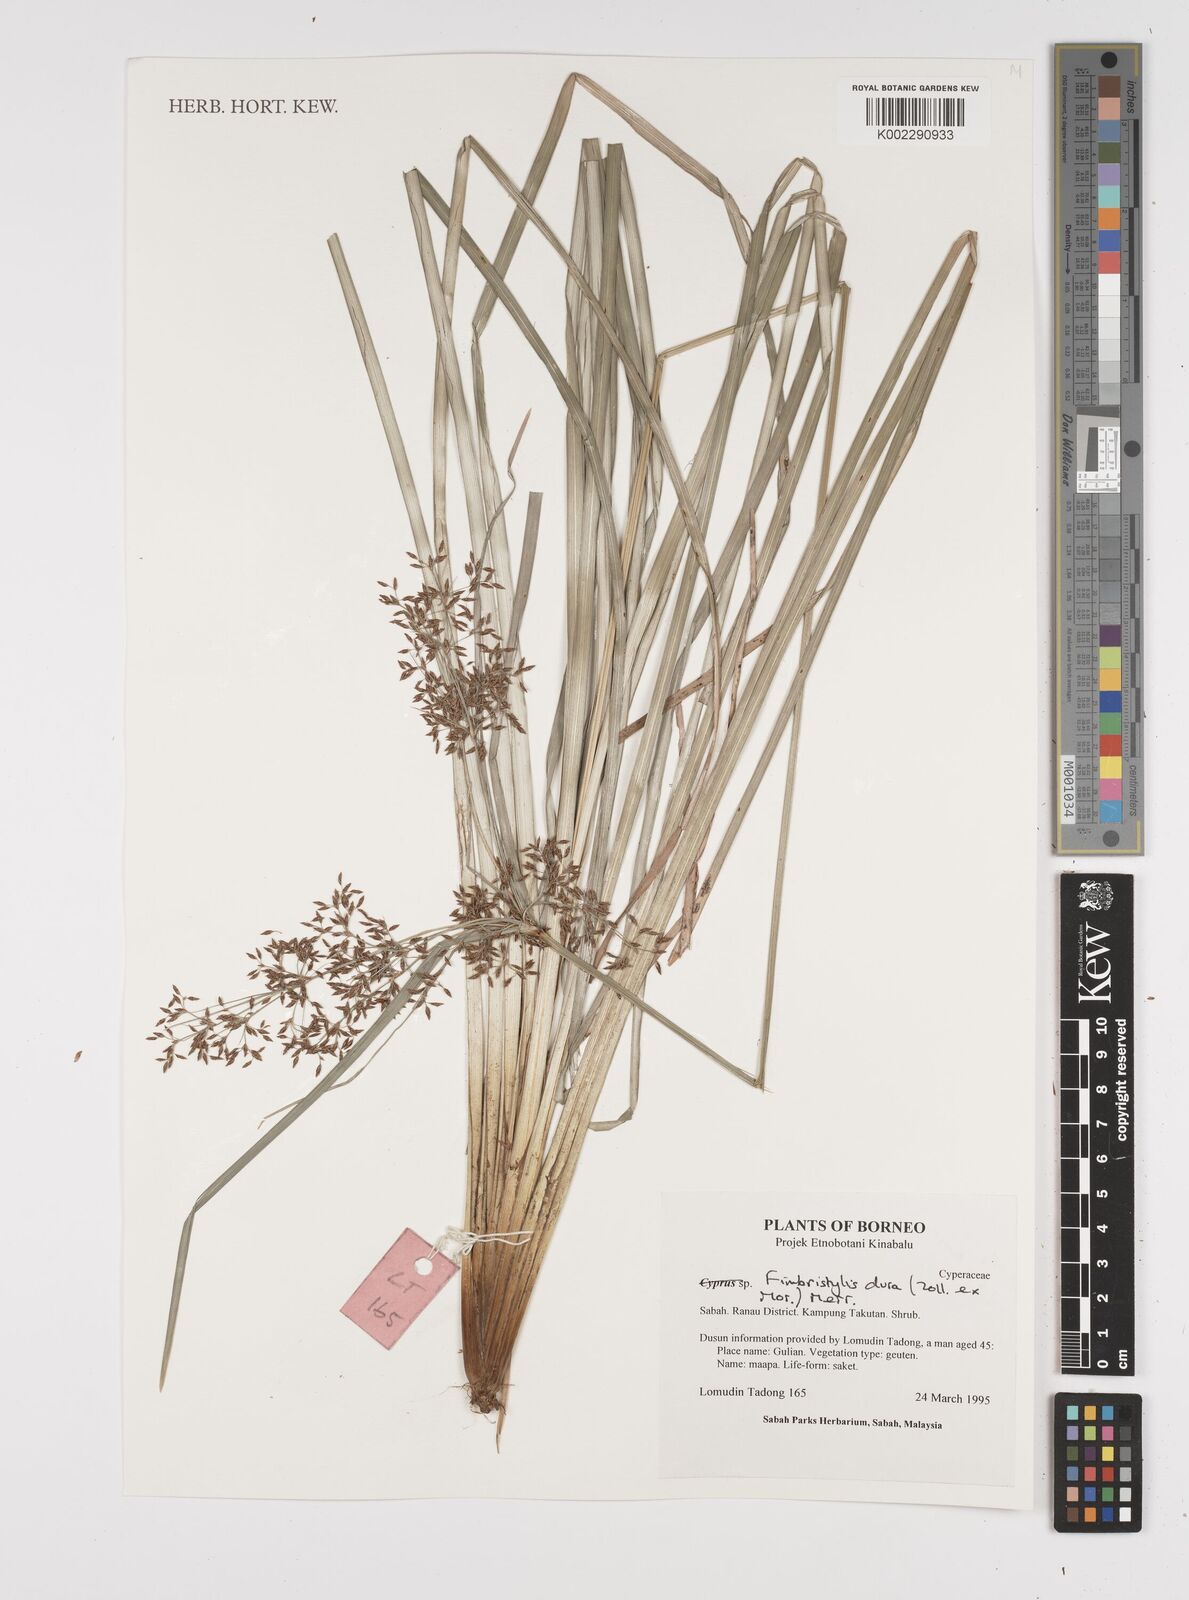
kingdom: Plantae
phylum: Tracheophyta
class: Liliopsida
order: Poales
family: Cyperaceae
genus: Fimbristylis
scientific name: Fimbristylis dura
